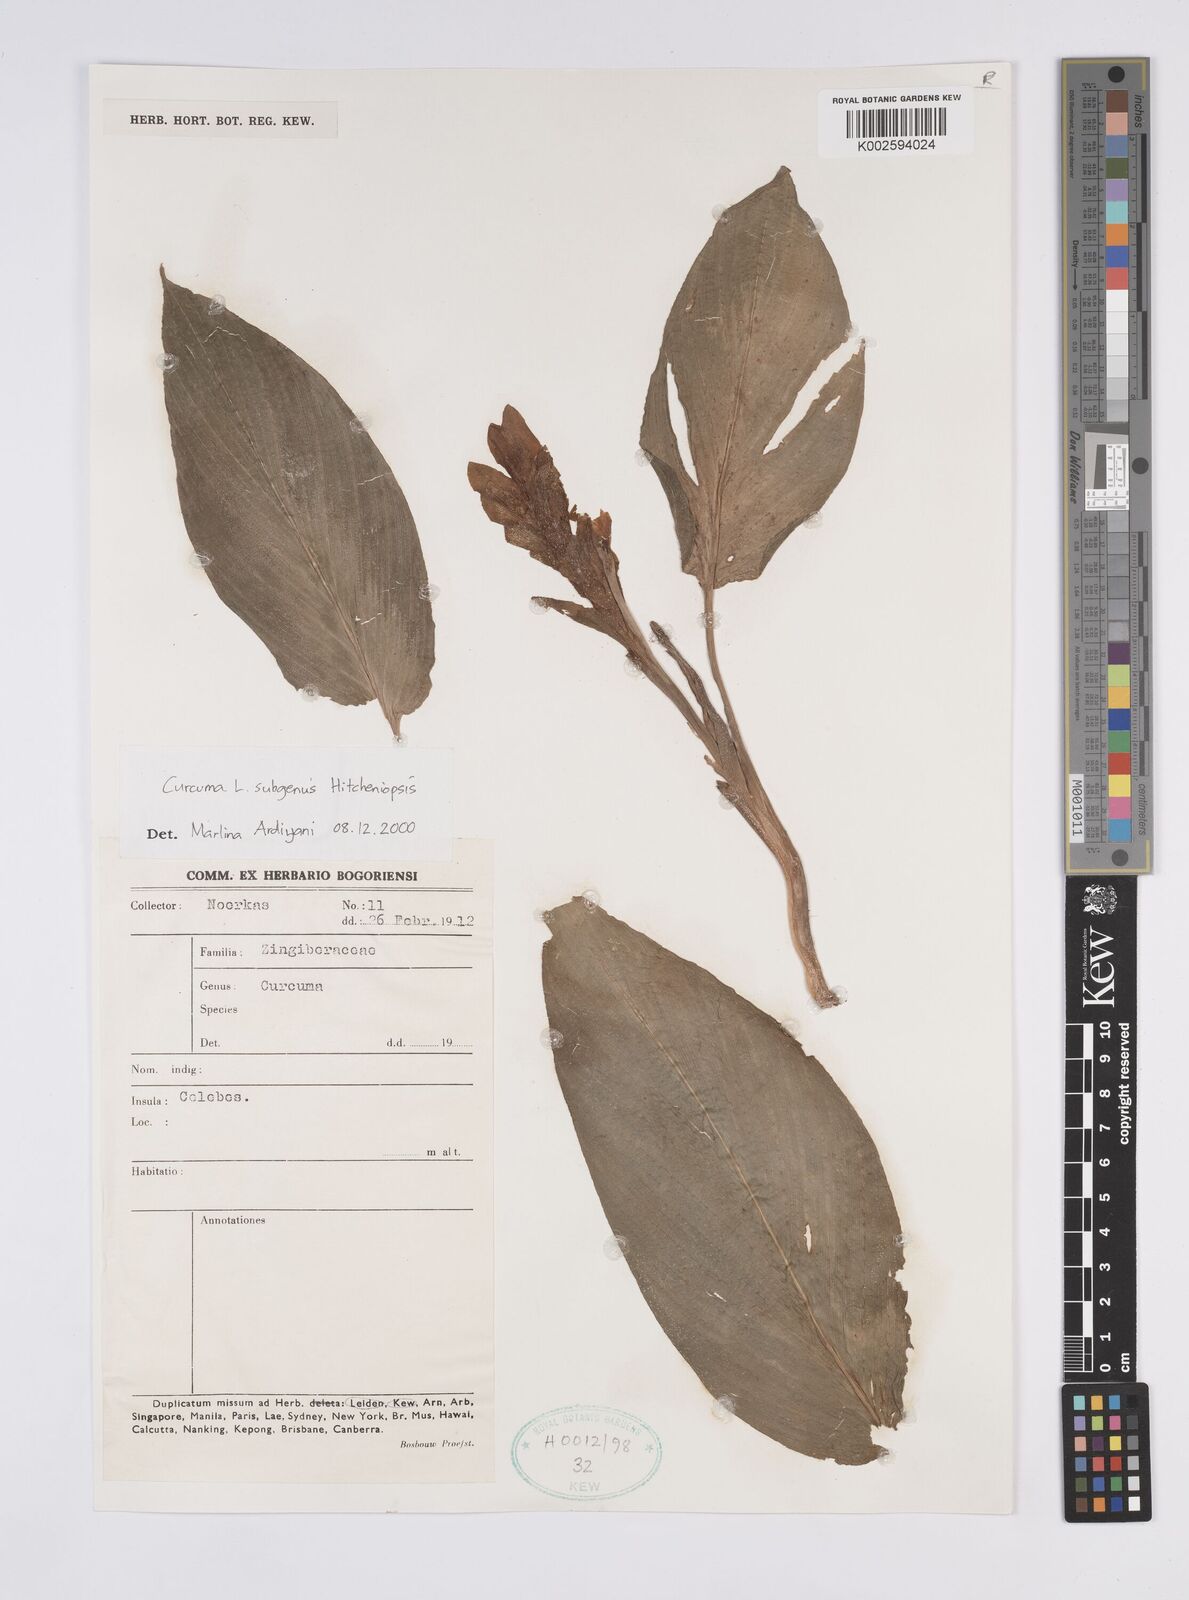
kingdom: Plantae
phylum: Tracheophyta
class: Liliopsida
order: Zingiberales
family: Zingiberaceae
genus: Curcuma
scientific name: Curcuma
